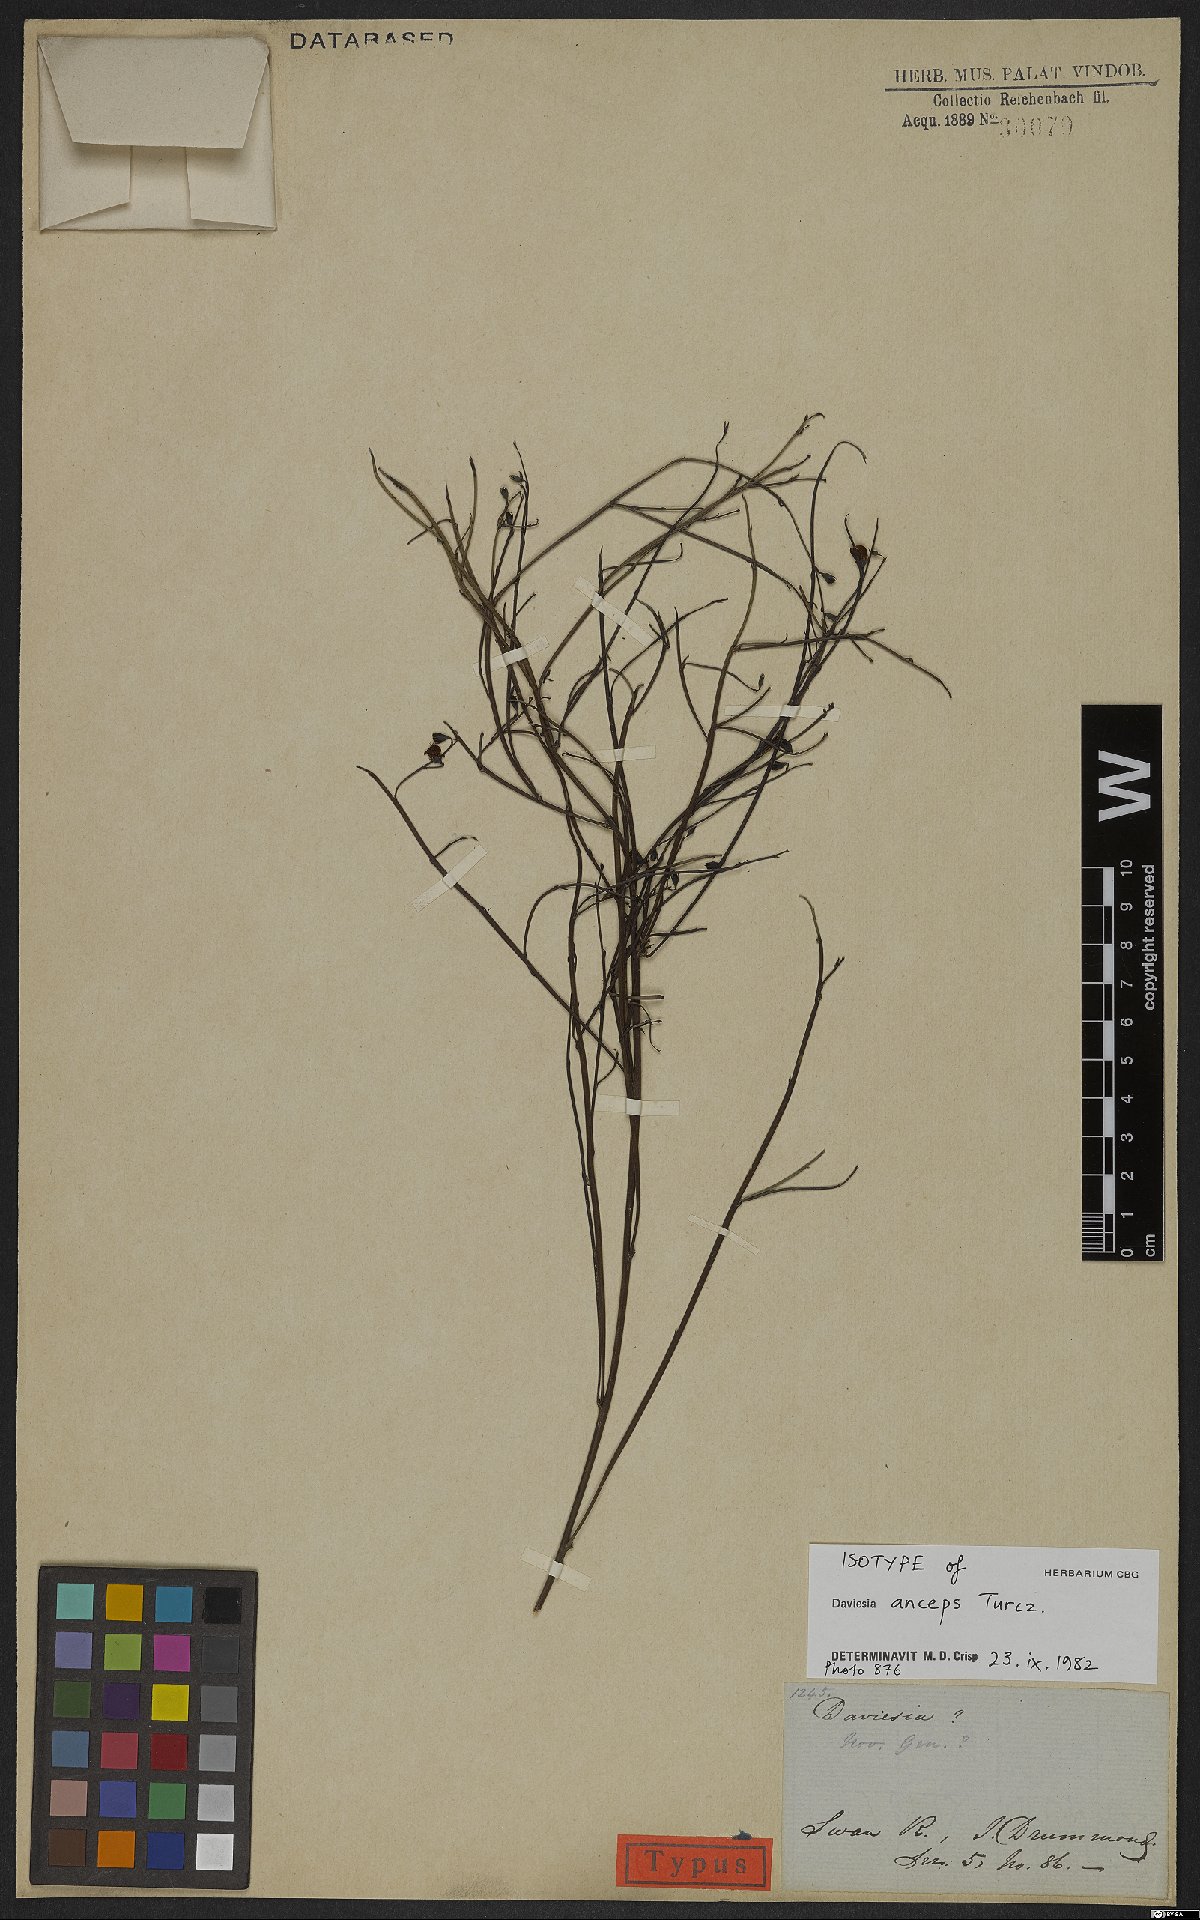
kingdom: Plantae
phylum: Tracheophyta
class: Magnoliopsida
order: Fabales
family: Fabaceae
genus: Daviesia
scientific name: Daviesia anceps
